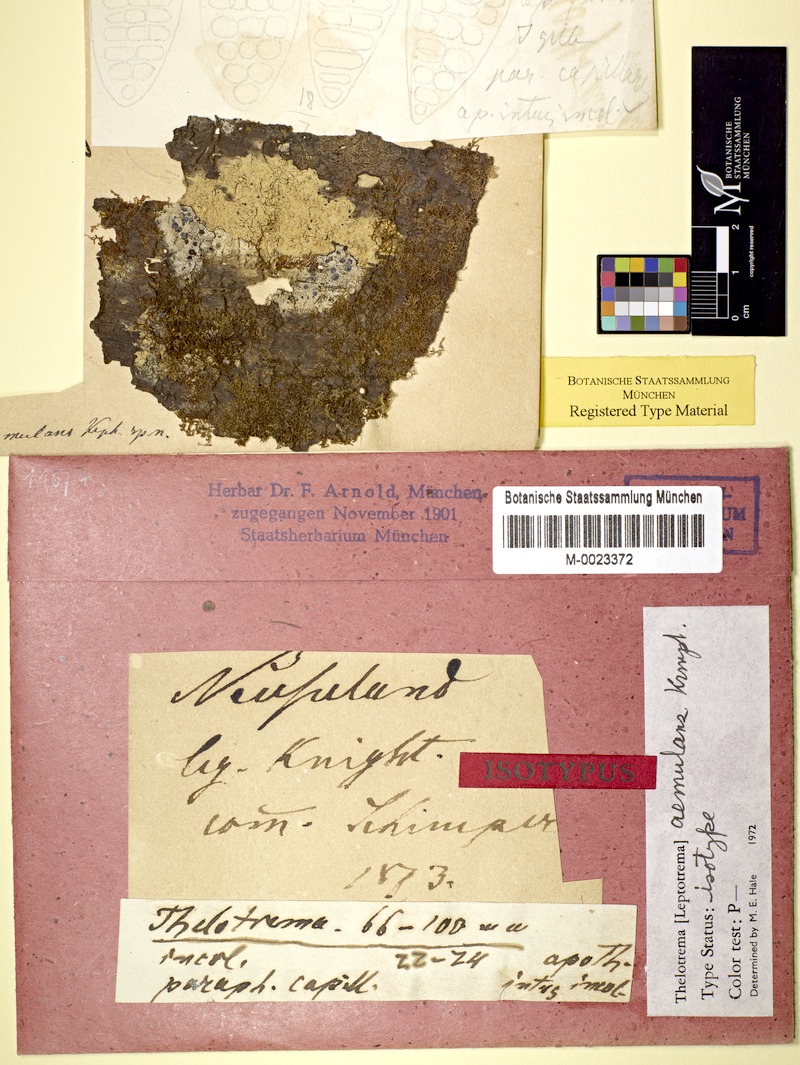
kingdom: Fungi
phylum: Ascomycota
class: Lecanoromycetes
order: Ostropales
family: Graphidaceae
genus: Thelotrema
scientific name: Thelotrema lepadinum
